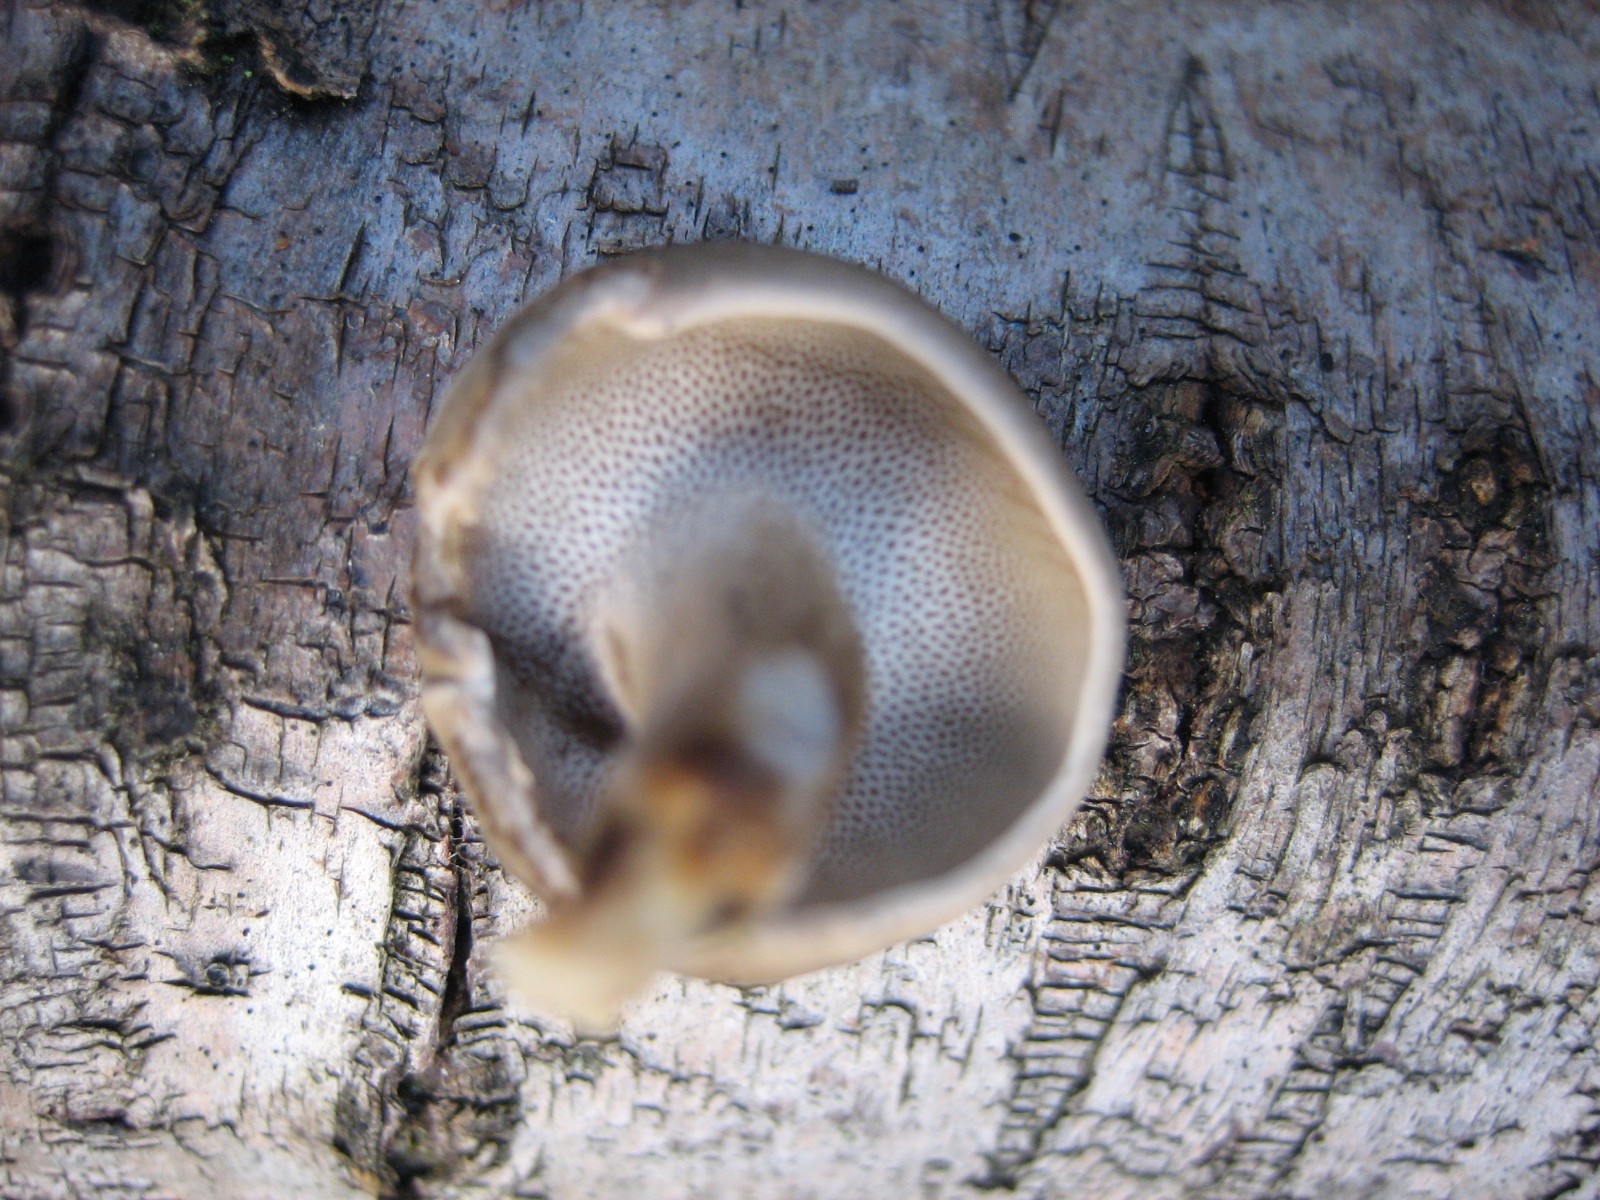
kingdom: Fungi
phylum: Basidiomycota
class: Agaricomycetes
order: Polyporales
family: Polyporaceae
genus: Lentinus
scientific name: Lentinus brumalis
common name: vinter-stilkporesvamp
